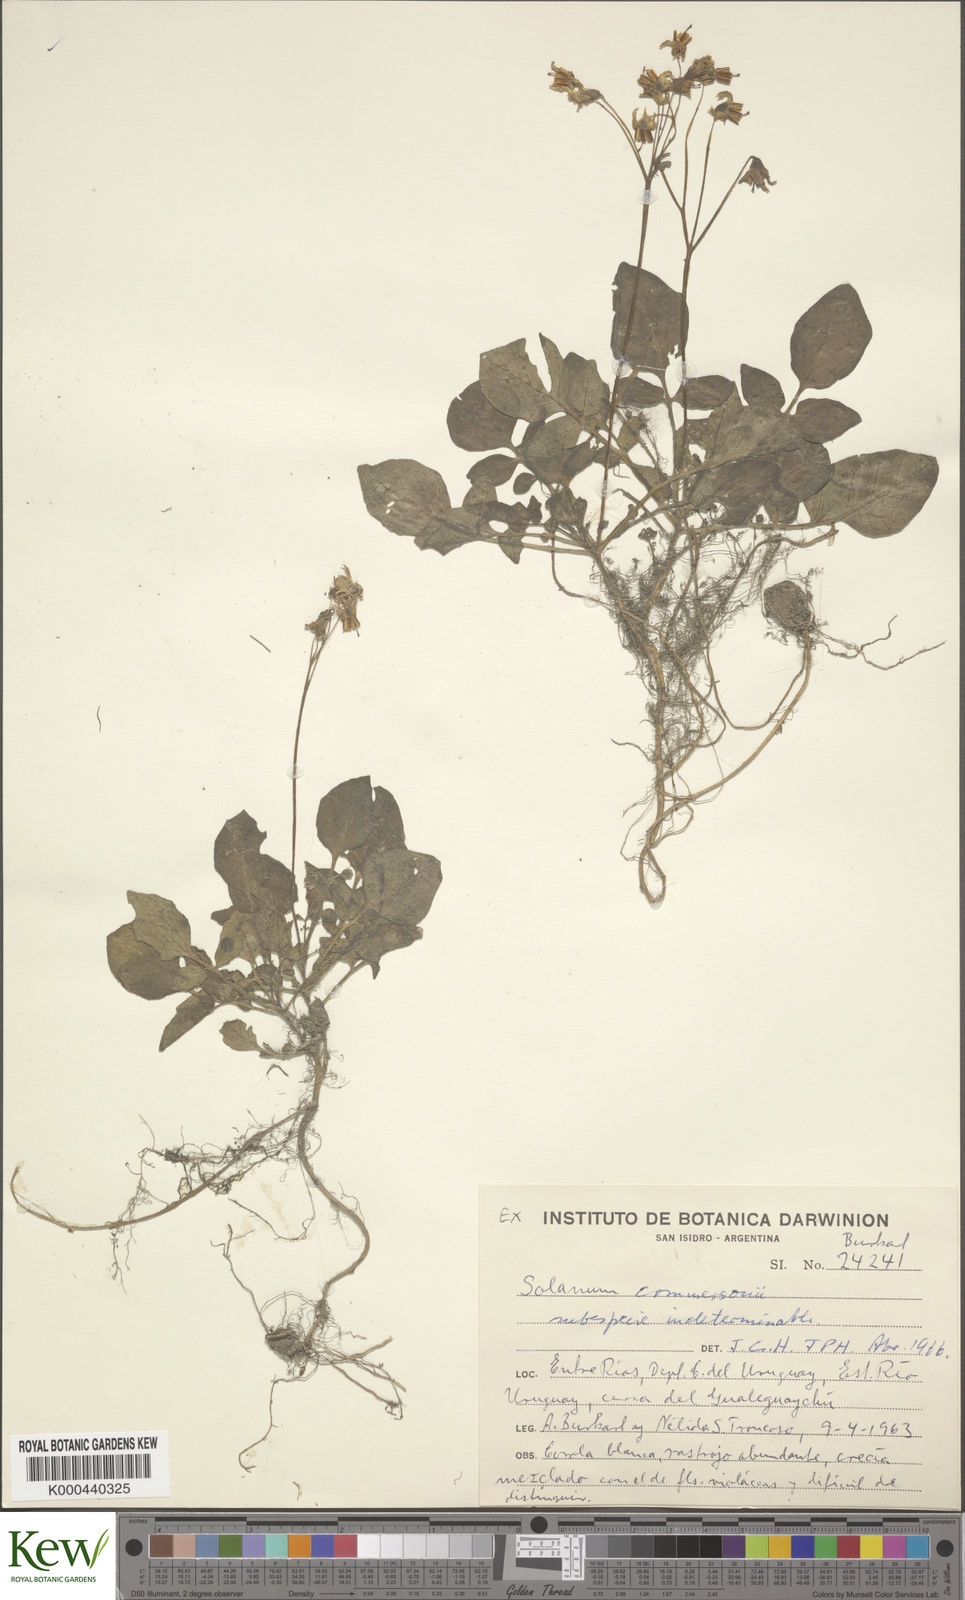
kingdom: Plantae
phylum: Tracheophyta
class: Magnoliopsida
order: Solanales
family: Solanaceae
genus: Solanum
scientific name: Solanum commersonii
